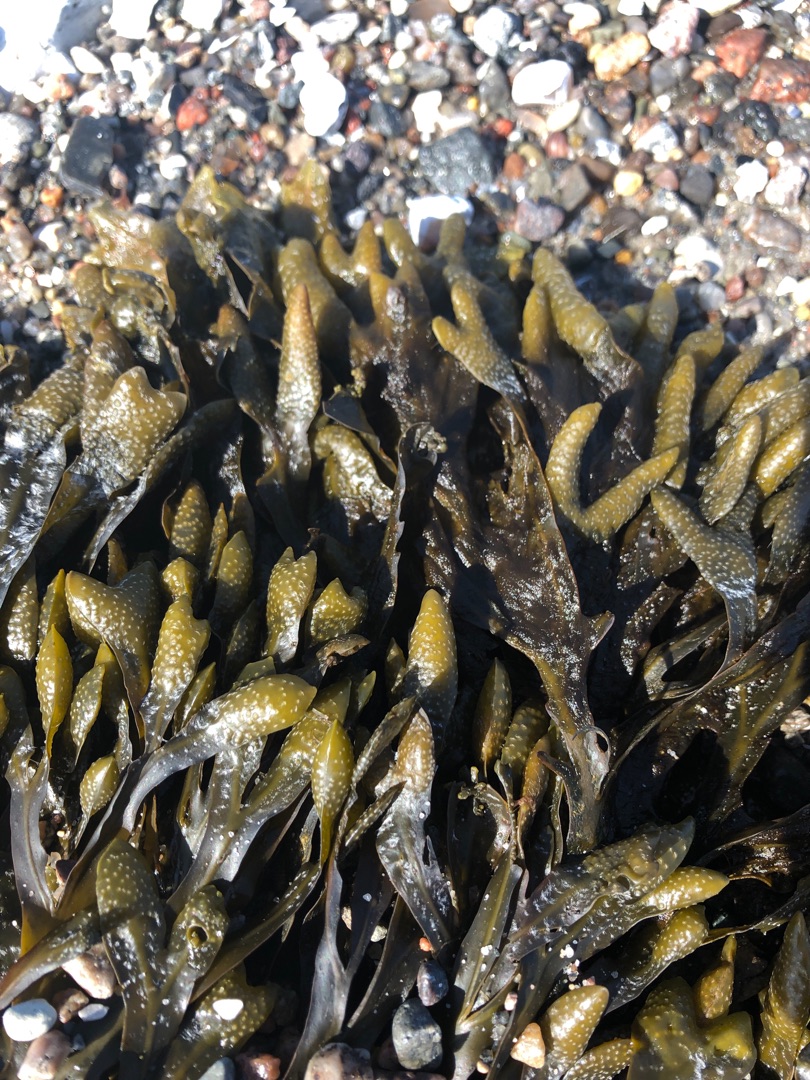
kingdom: Chromista
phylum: Ochrophyta
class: Phaeophyceae
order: Fucales
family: Fucaceae
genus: Fucus
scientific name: Fucus vesiculosus
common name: Blæretang
